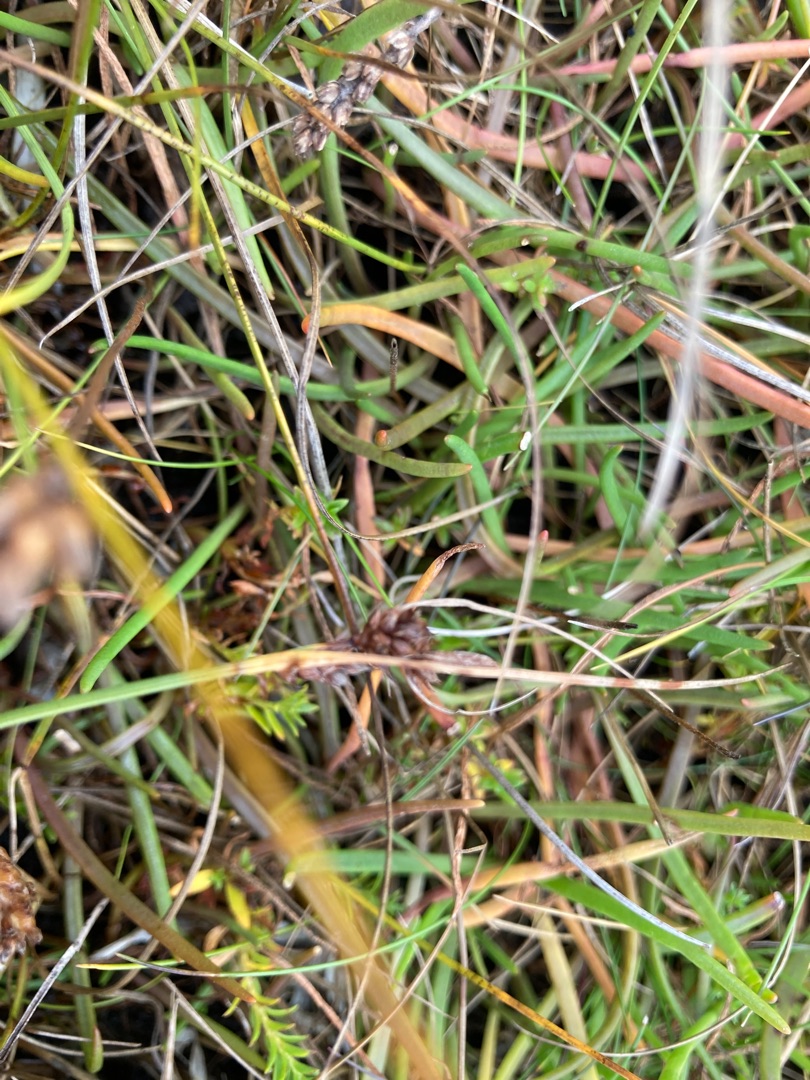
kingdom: Plantae
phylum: Tracheophyta
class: Liliopsida
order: Poales
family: Cyperaceae
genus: Carex
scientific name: Carex extensa
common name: Udspilet star
